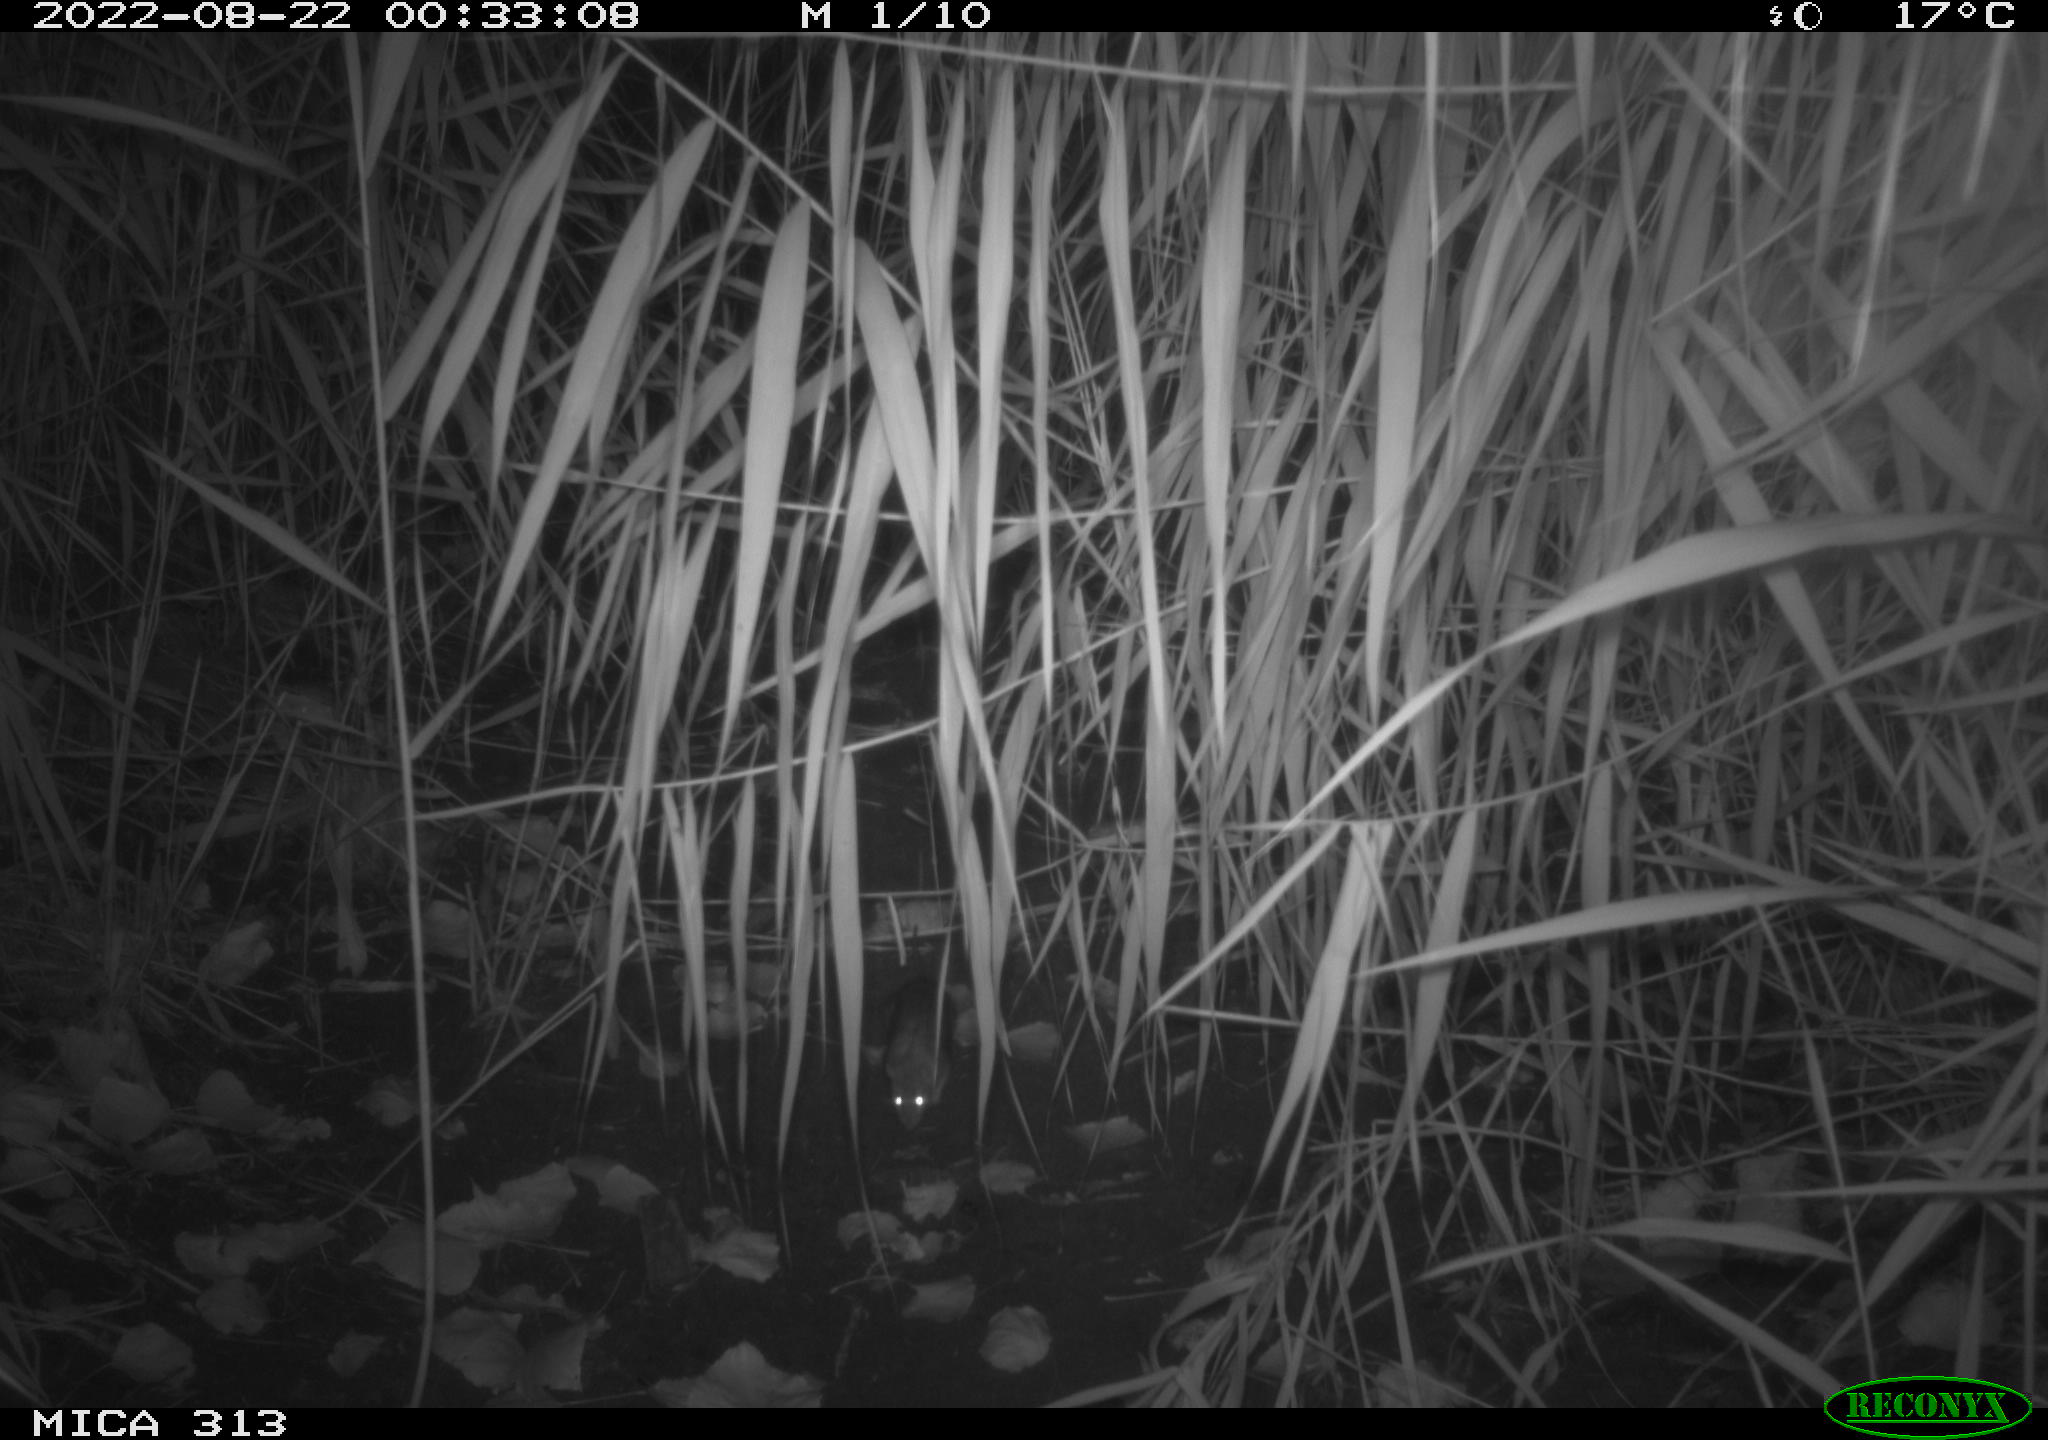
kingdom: Animalia
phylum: Chordata
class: Mammalia
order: Rodentia
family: Muridae
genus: Rattus
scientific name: Rattus norvegicus
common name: Brown rat
